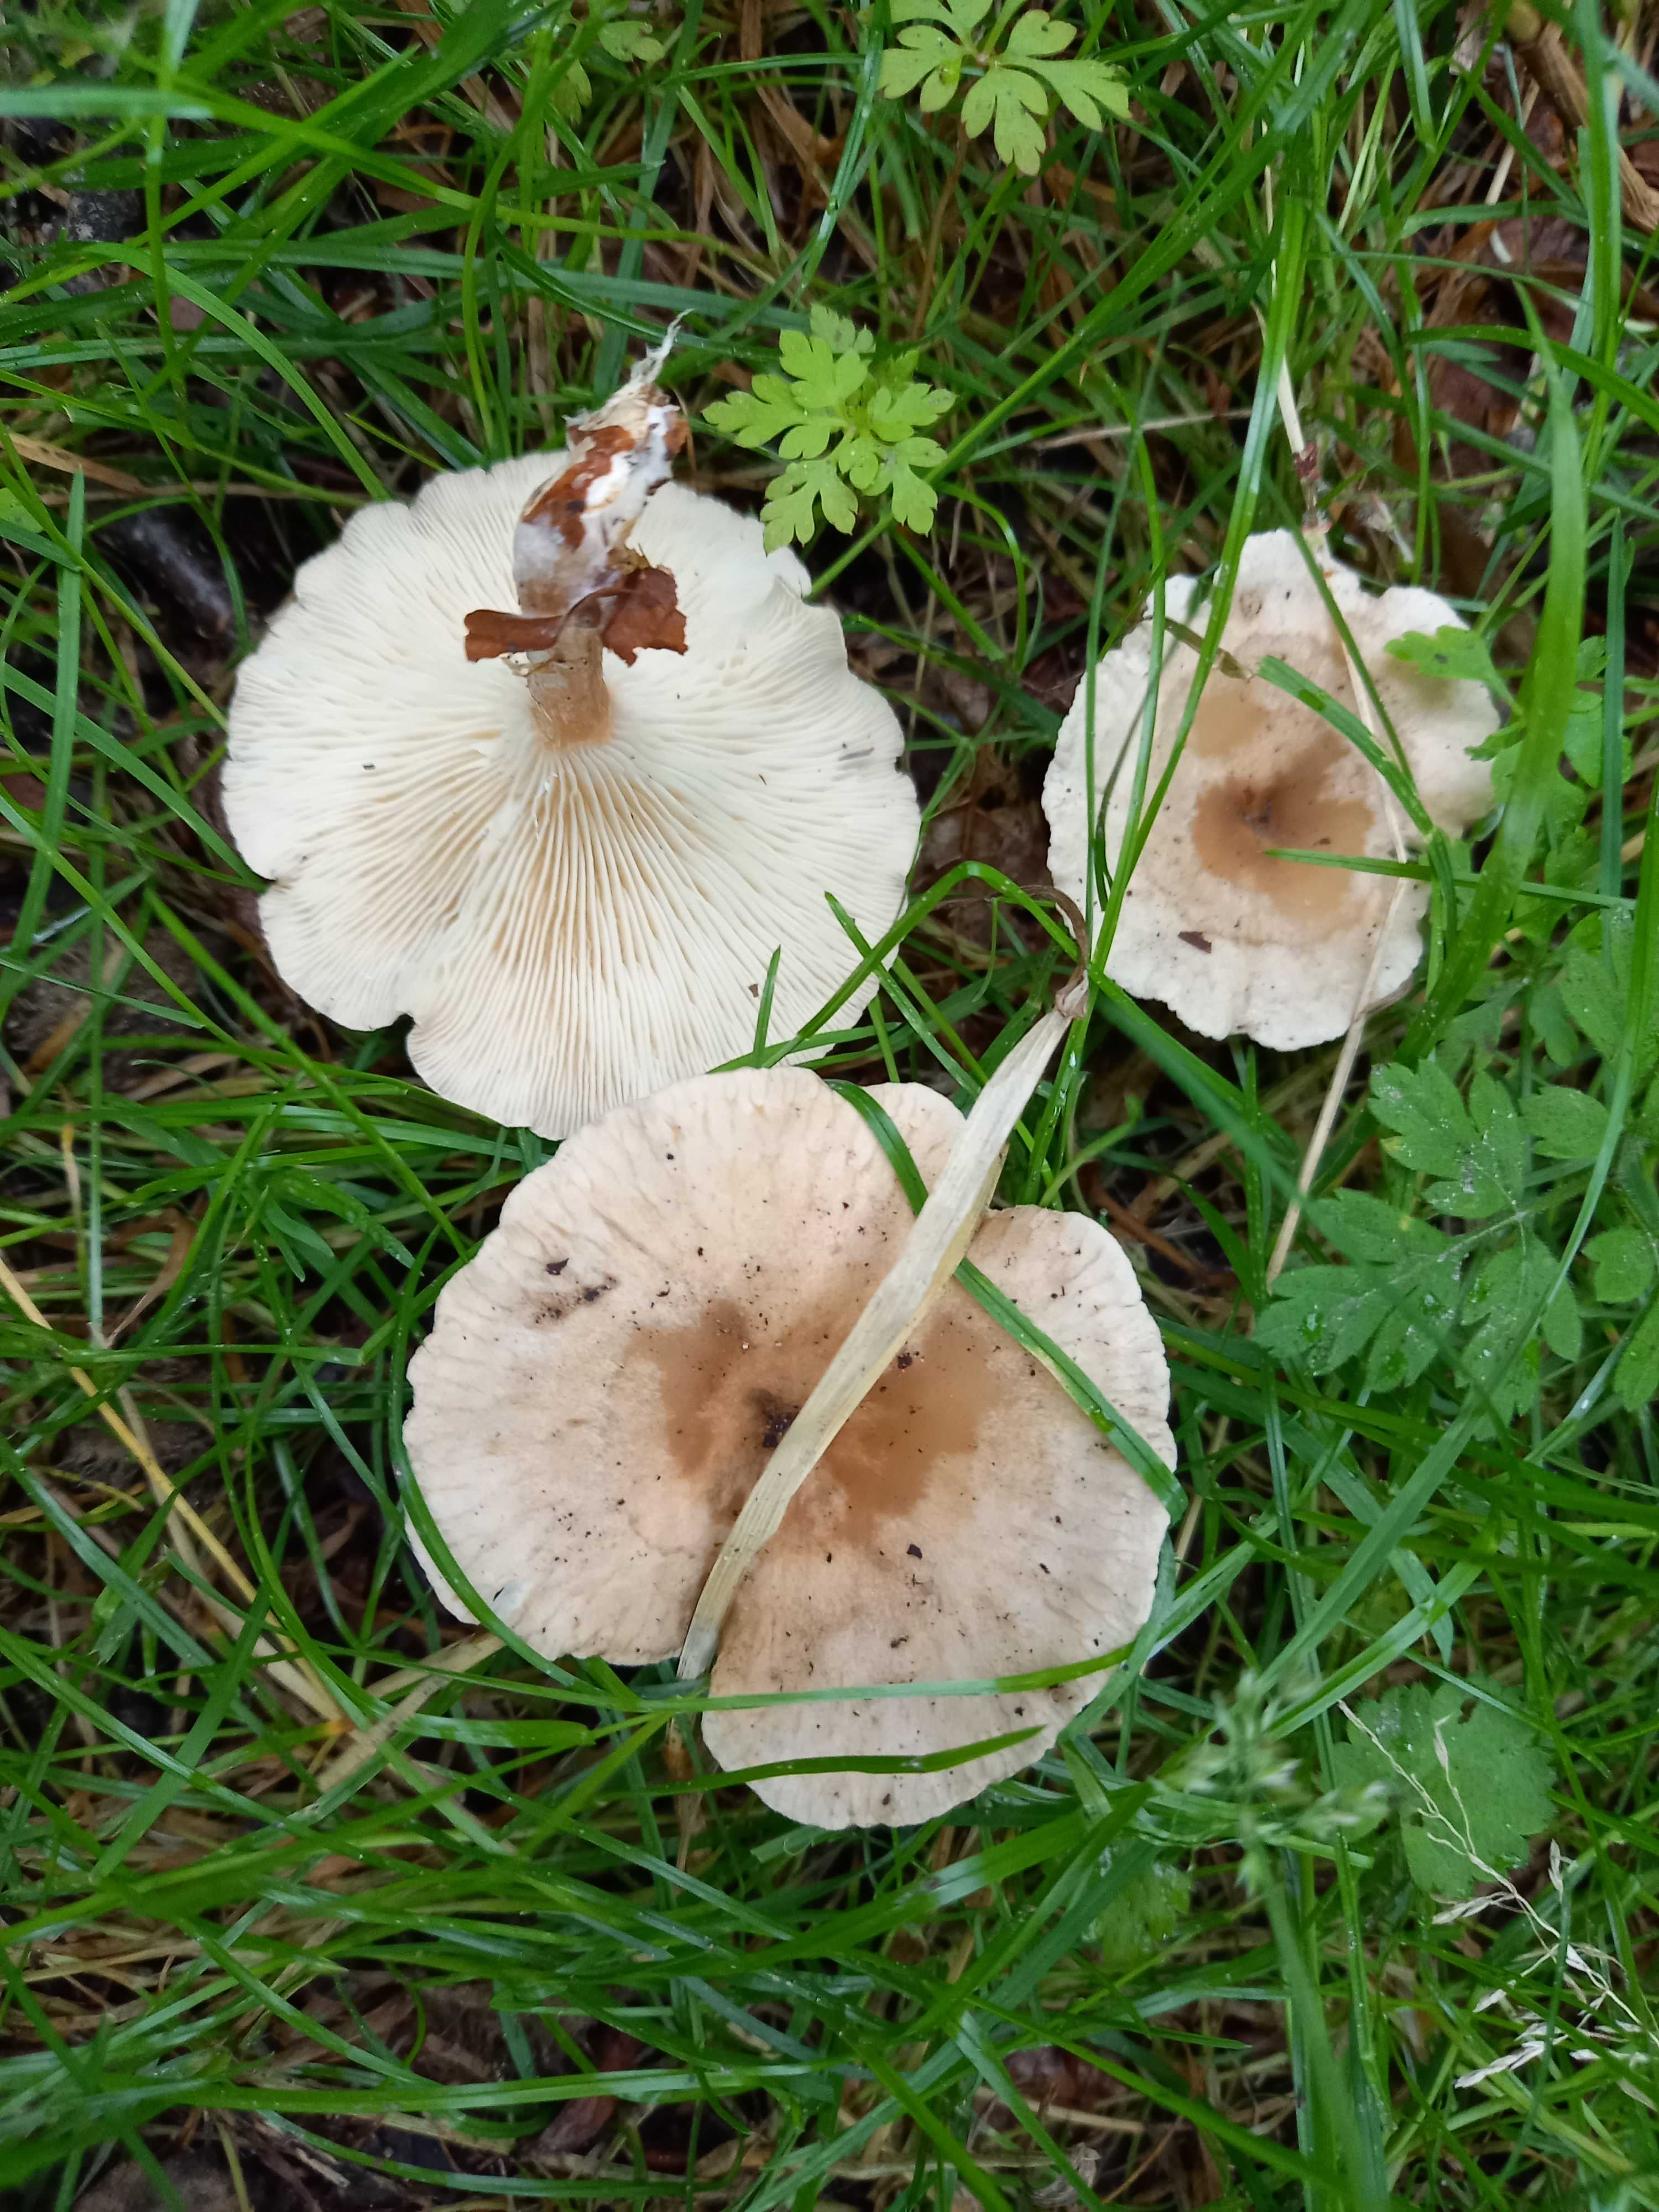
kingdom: Fungi
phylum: Basidiomycota
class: Agaricomycetes
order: Agaricales
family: Tricholomataceae
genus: Infundibulicybe
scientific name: Infundibulicybe
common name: tragthat
